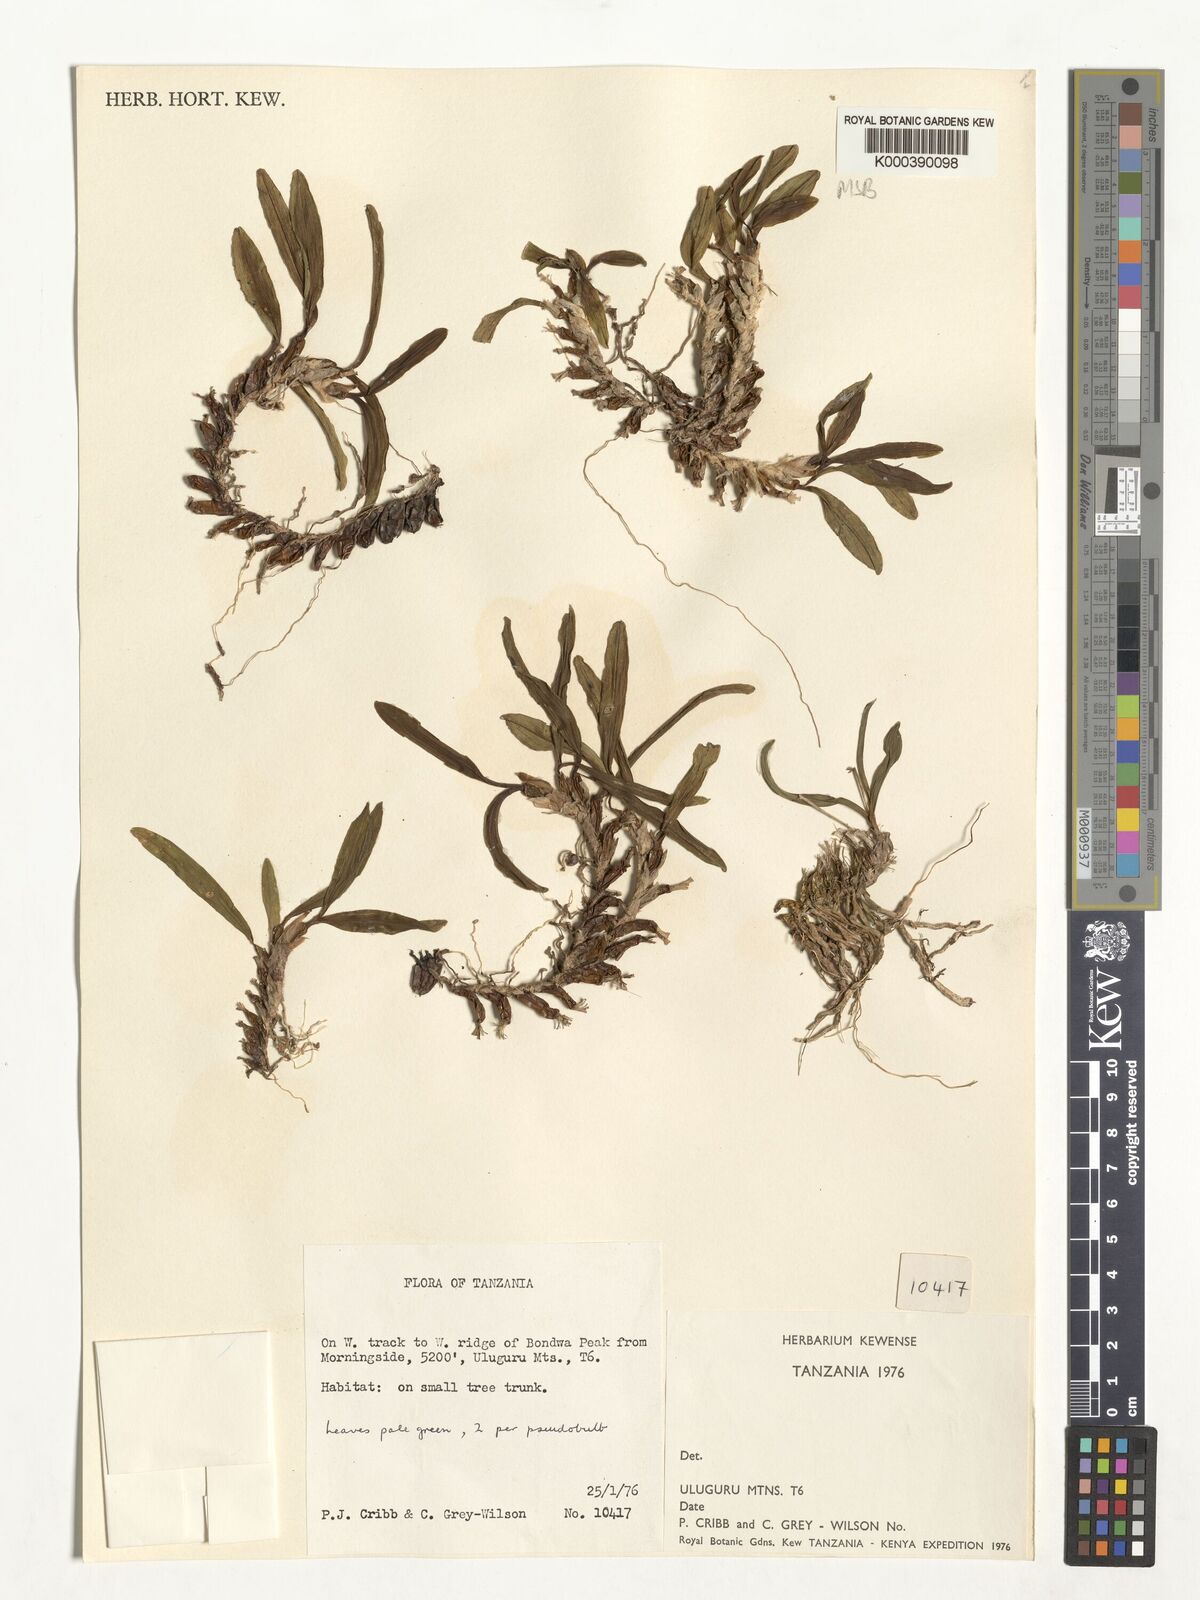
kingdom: Plantae
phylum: Tracheophyta
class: Liliopsida
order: Asparagales
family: Orchidaceae
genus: Polystachya
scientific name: Polystachya melanantha
